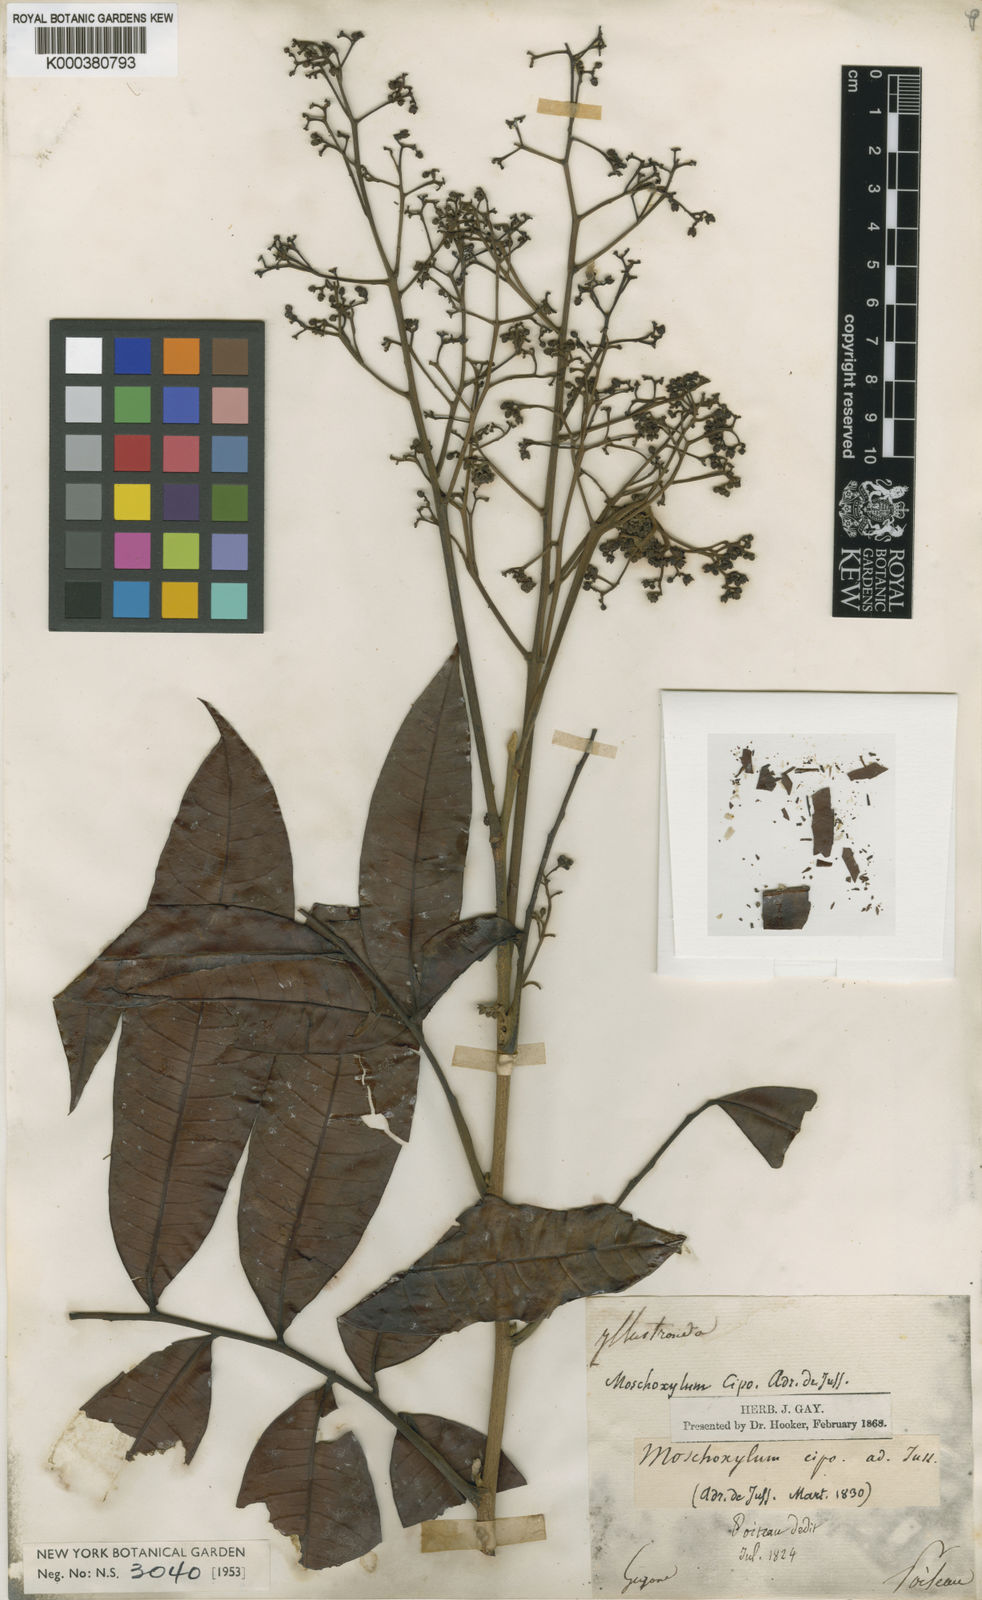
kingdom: Plantae
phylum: Tracheophyta
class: Magnoliopsida
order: Sapindales
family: Meliaceae
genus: Trichilia
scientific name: Trichilia cipo
